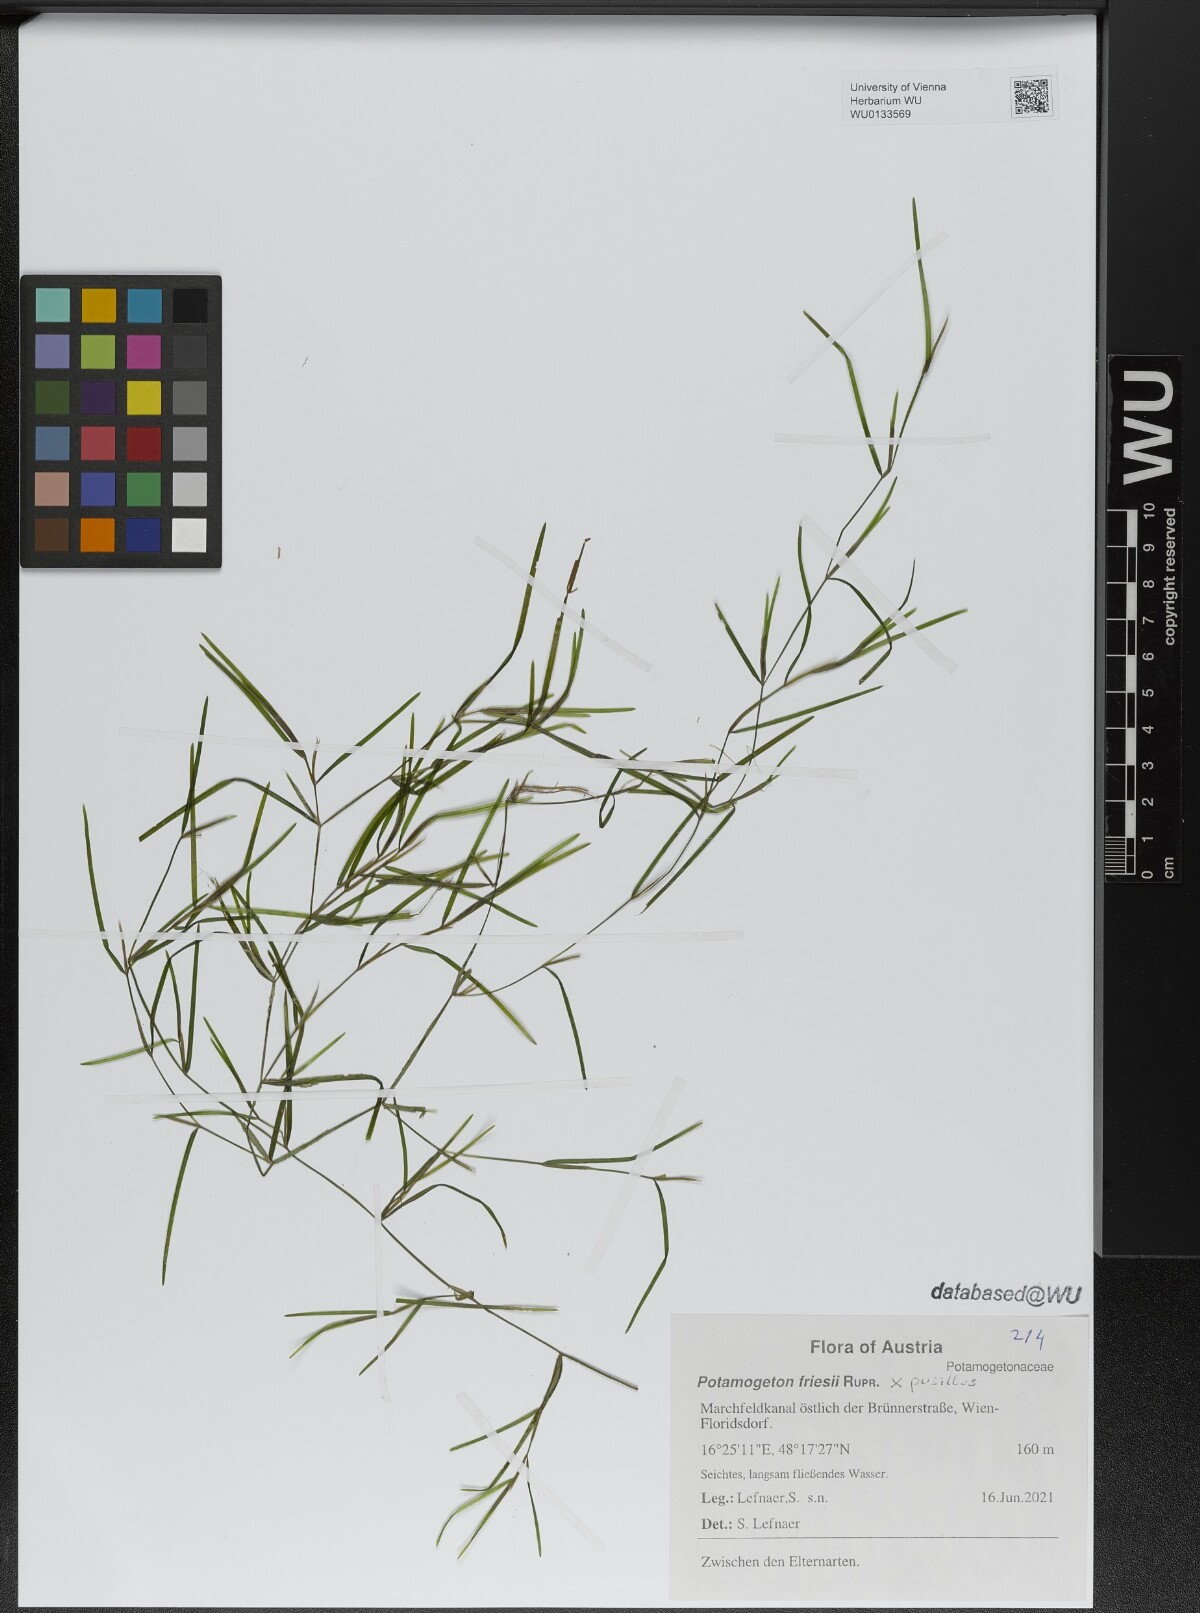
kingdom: Plantae
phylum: Tracheophyta
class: Liliopsida
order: Alismatales
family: Potamogetonaceae
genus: Potamogeton
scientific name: Potamogeton friesii
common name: Flat-stalked pondweed
